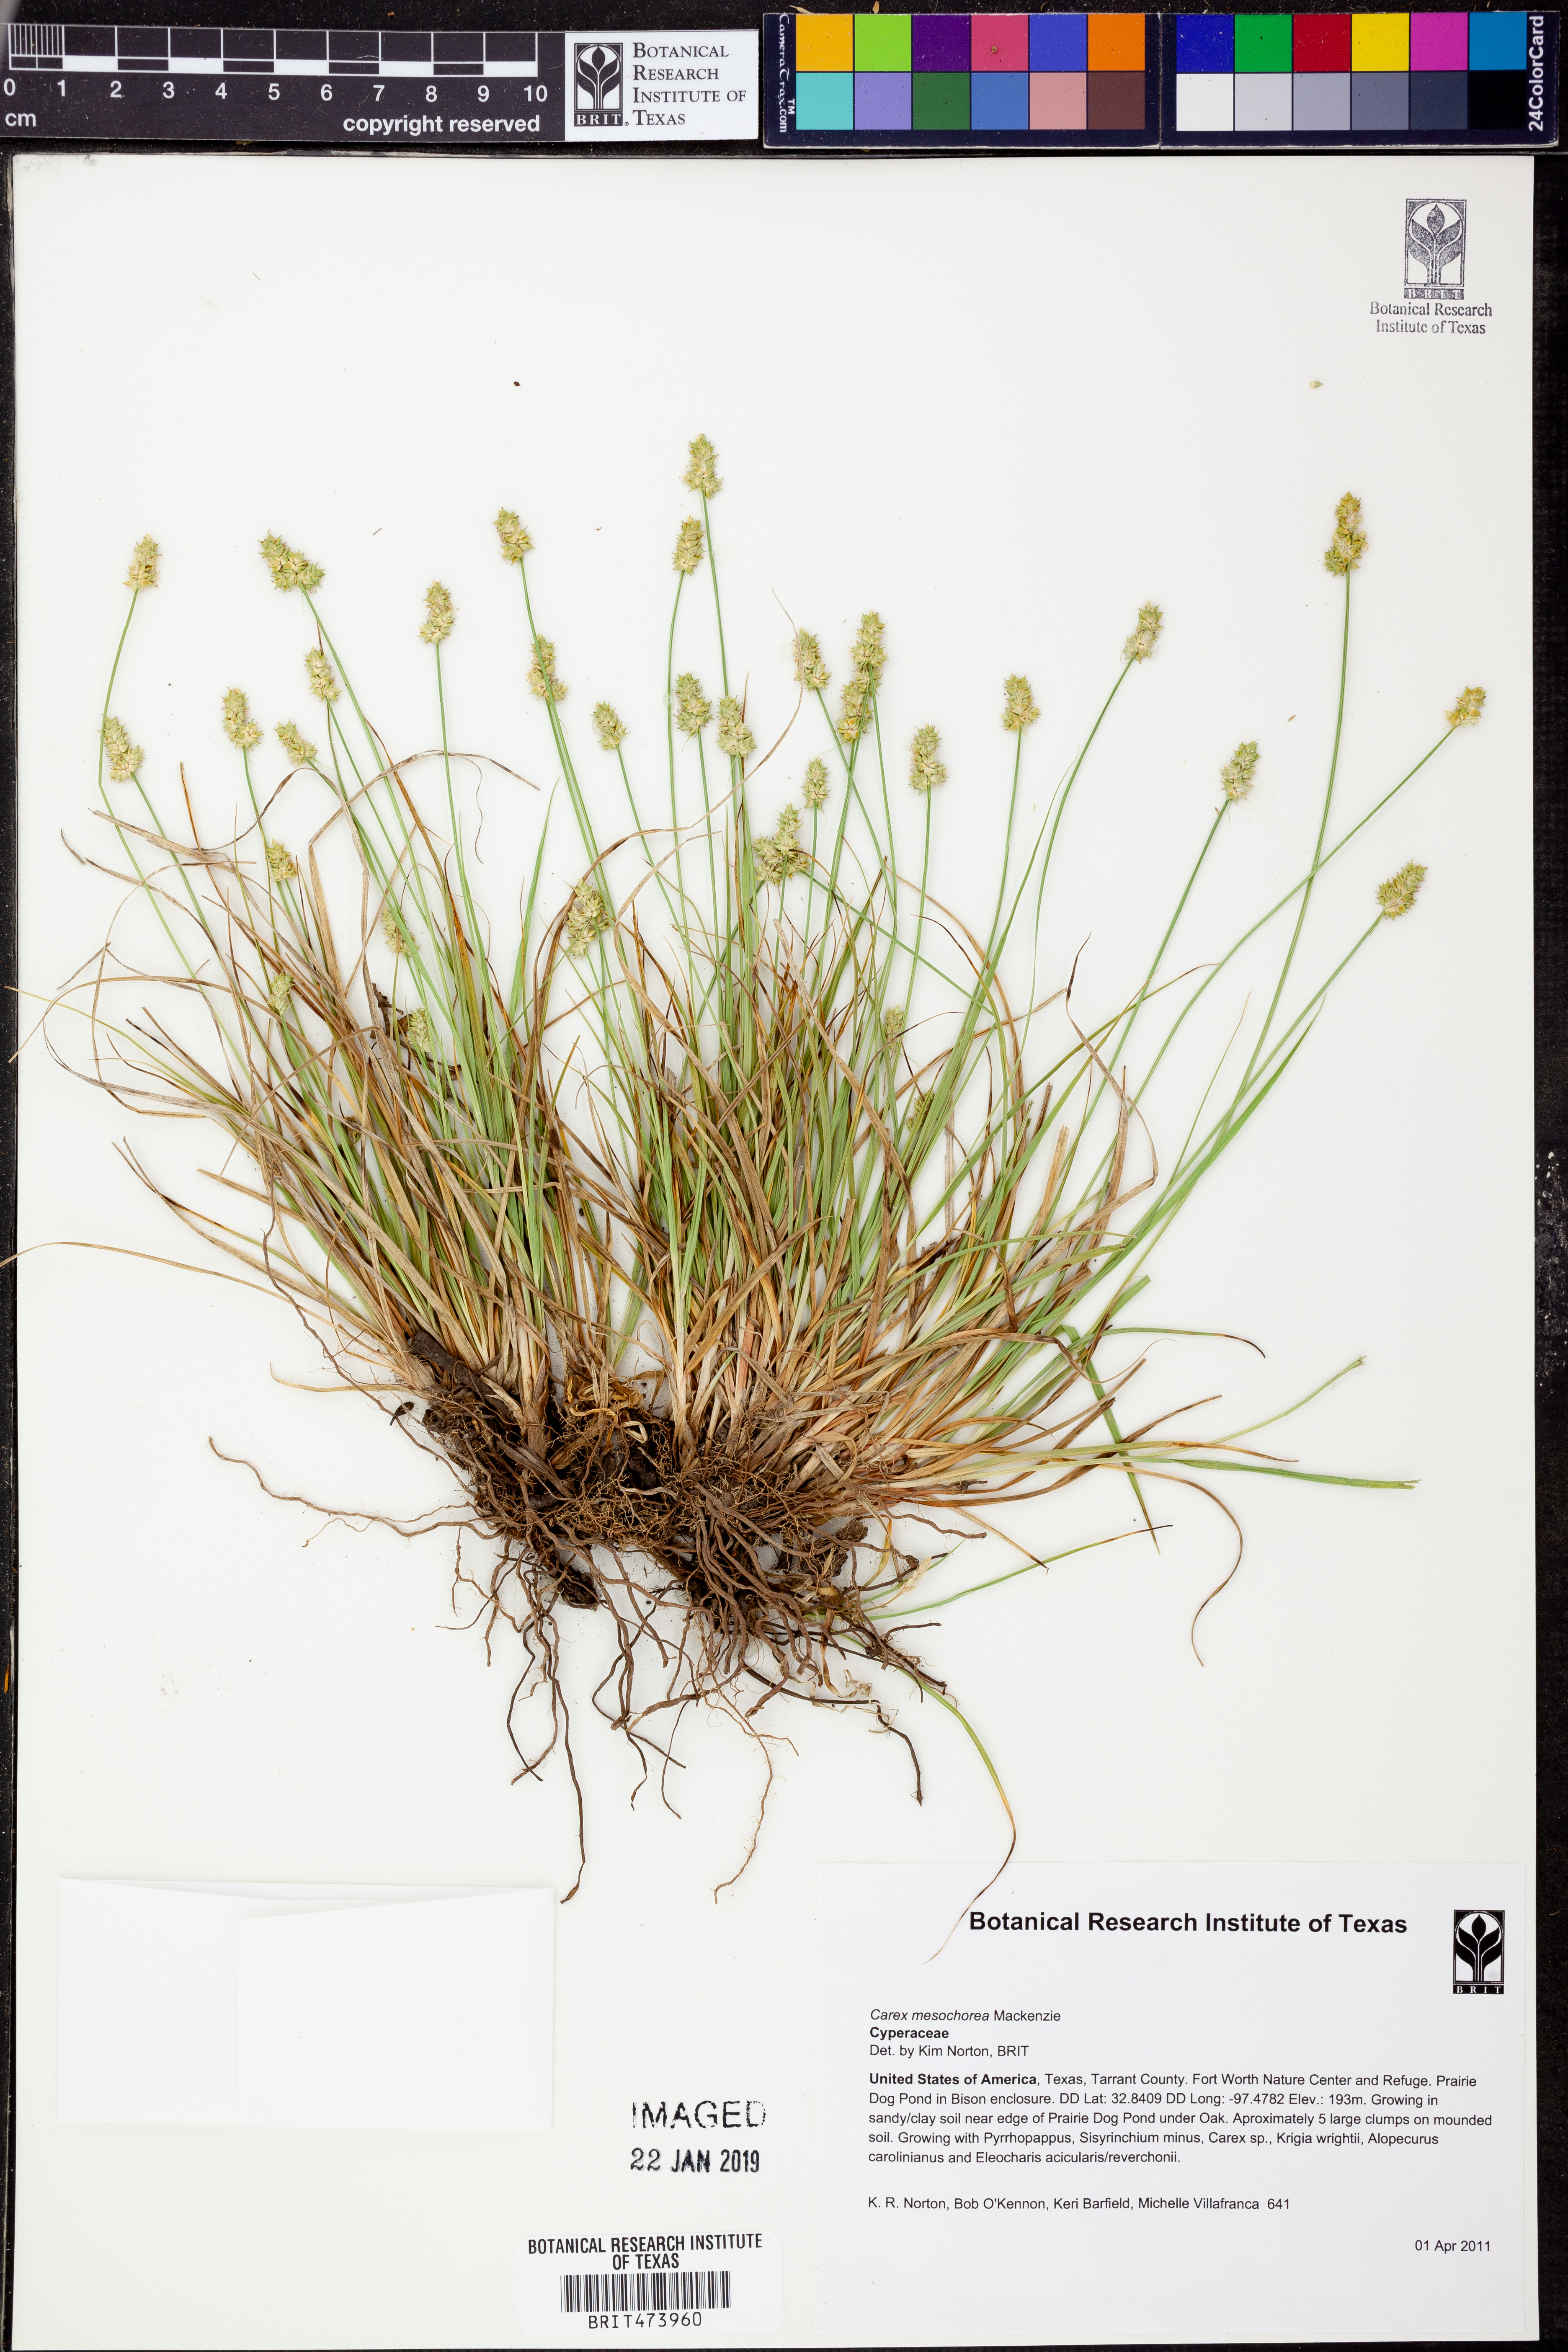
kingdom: Plantae
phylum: Tracheophyta
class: Liliopsida
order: Poales
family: Cyperaceae
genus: Carex
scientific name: Carex mesochorea
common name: Midland bracted sedge
